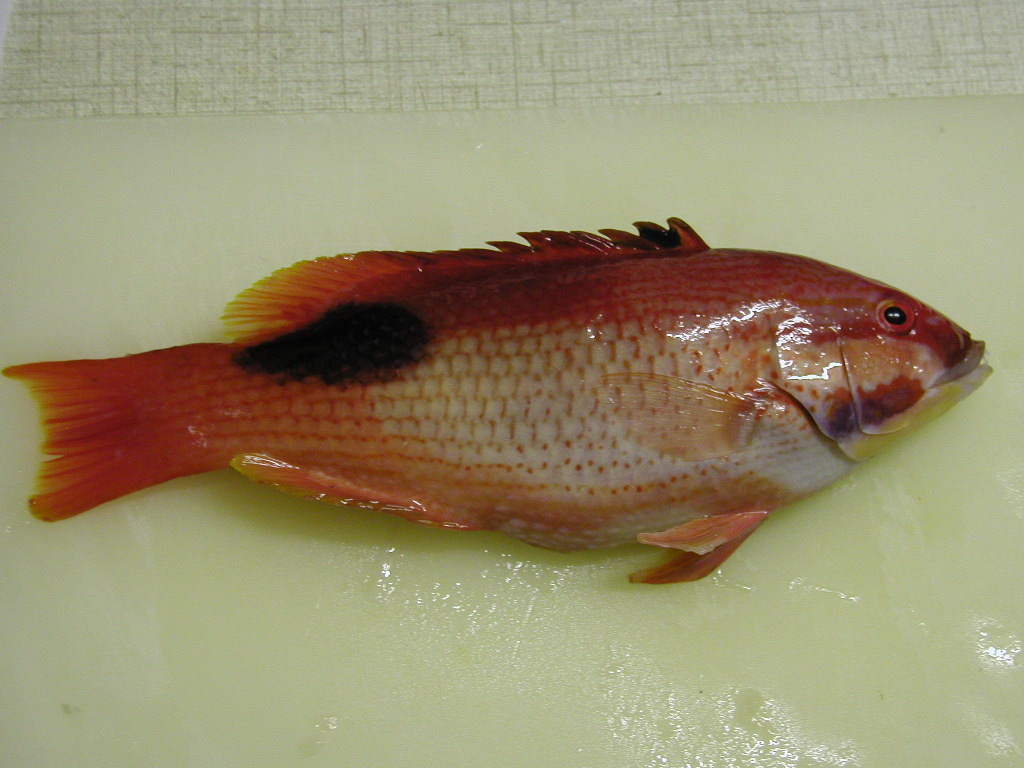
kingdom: Animalia
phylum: Chordata
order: Perciformes
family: Labridae
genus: Bodianus
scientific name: Bodianus bilunulatus
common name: Tarry hogfish
